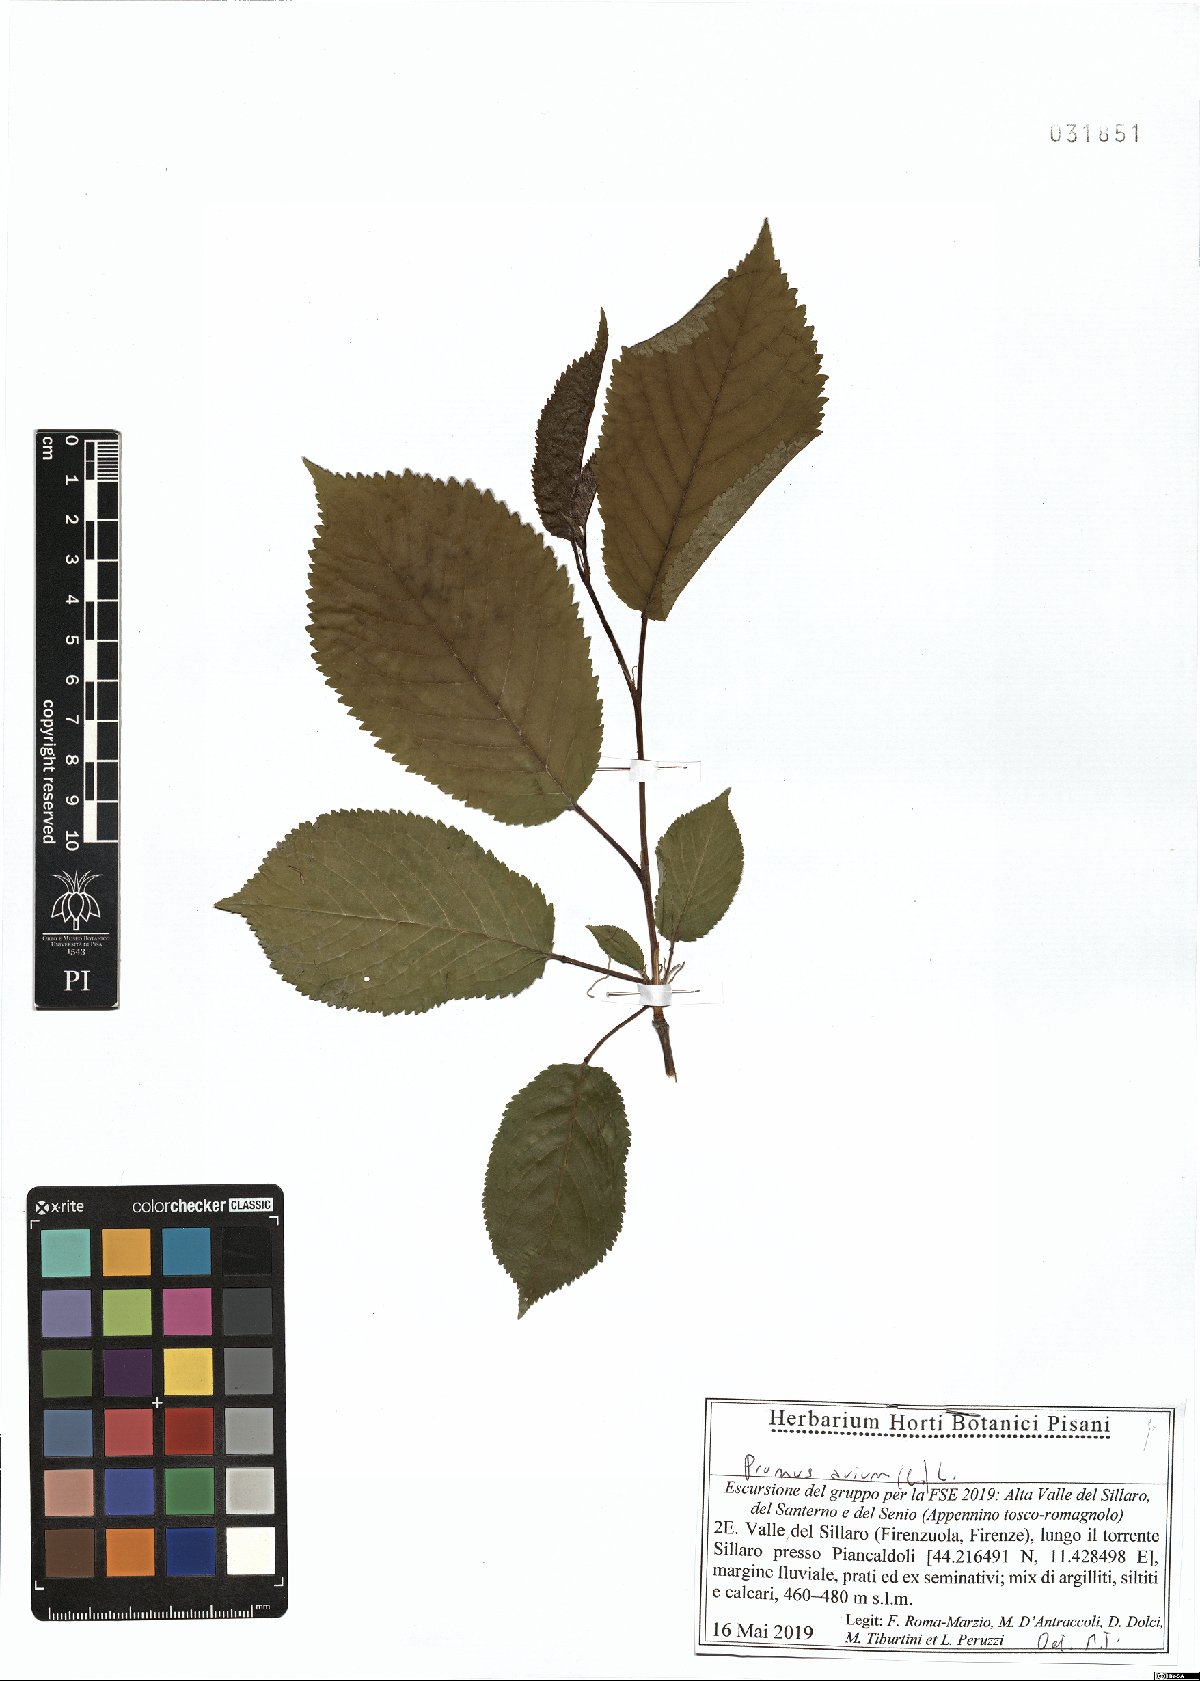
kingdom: Plantae
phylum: Tracheophyta
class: Magnoliopsida
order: Rosales
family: Rosaceae
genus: Prunus
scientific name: Prunus avium
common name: Sweet cherry
